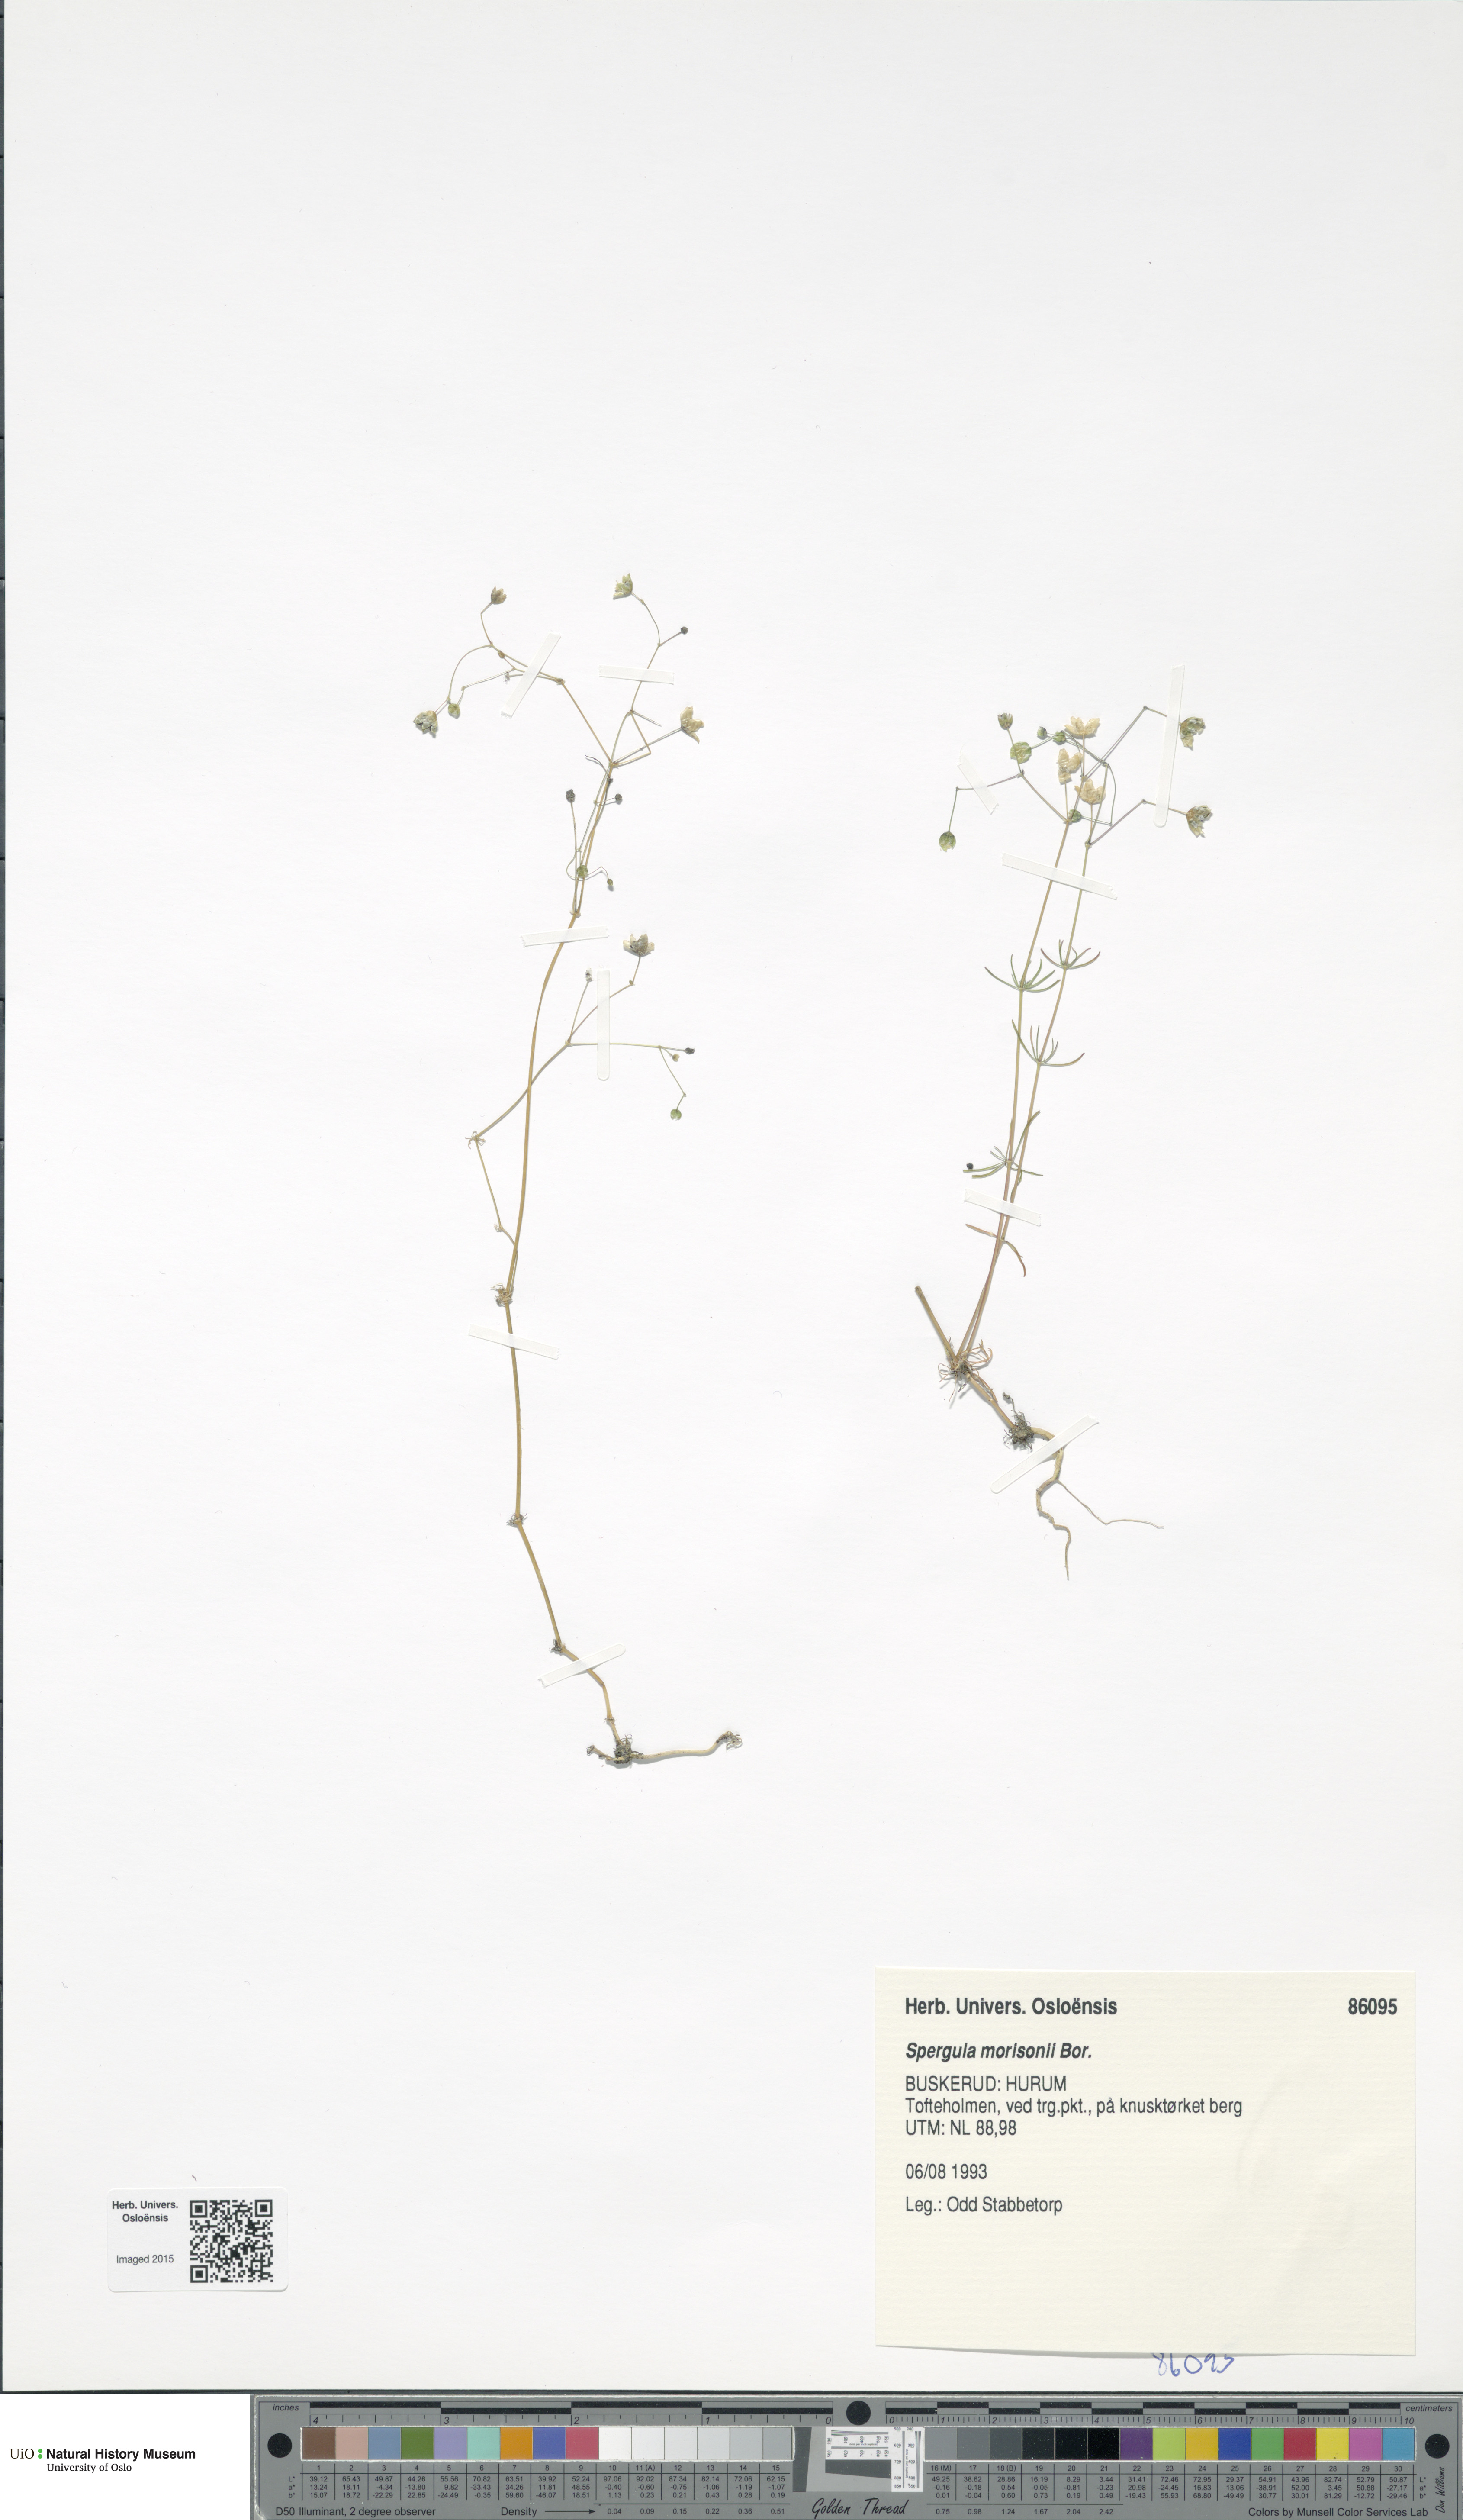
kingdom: Plantae
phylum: Tracheophyta
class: Magnoliopsida
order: Caryophyllales
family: Caryophyllaceae
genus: Spergula
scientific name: Spergula morisonii
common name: Pearlwort spurrey
